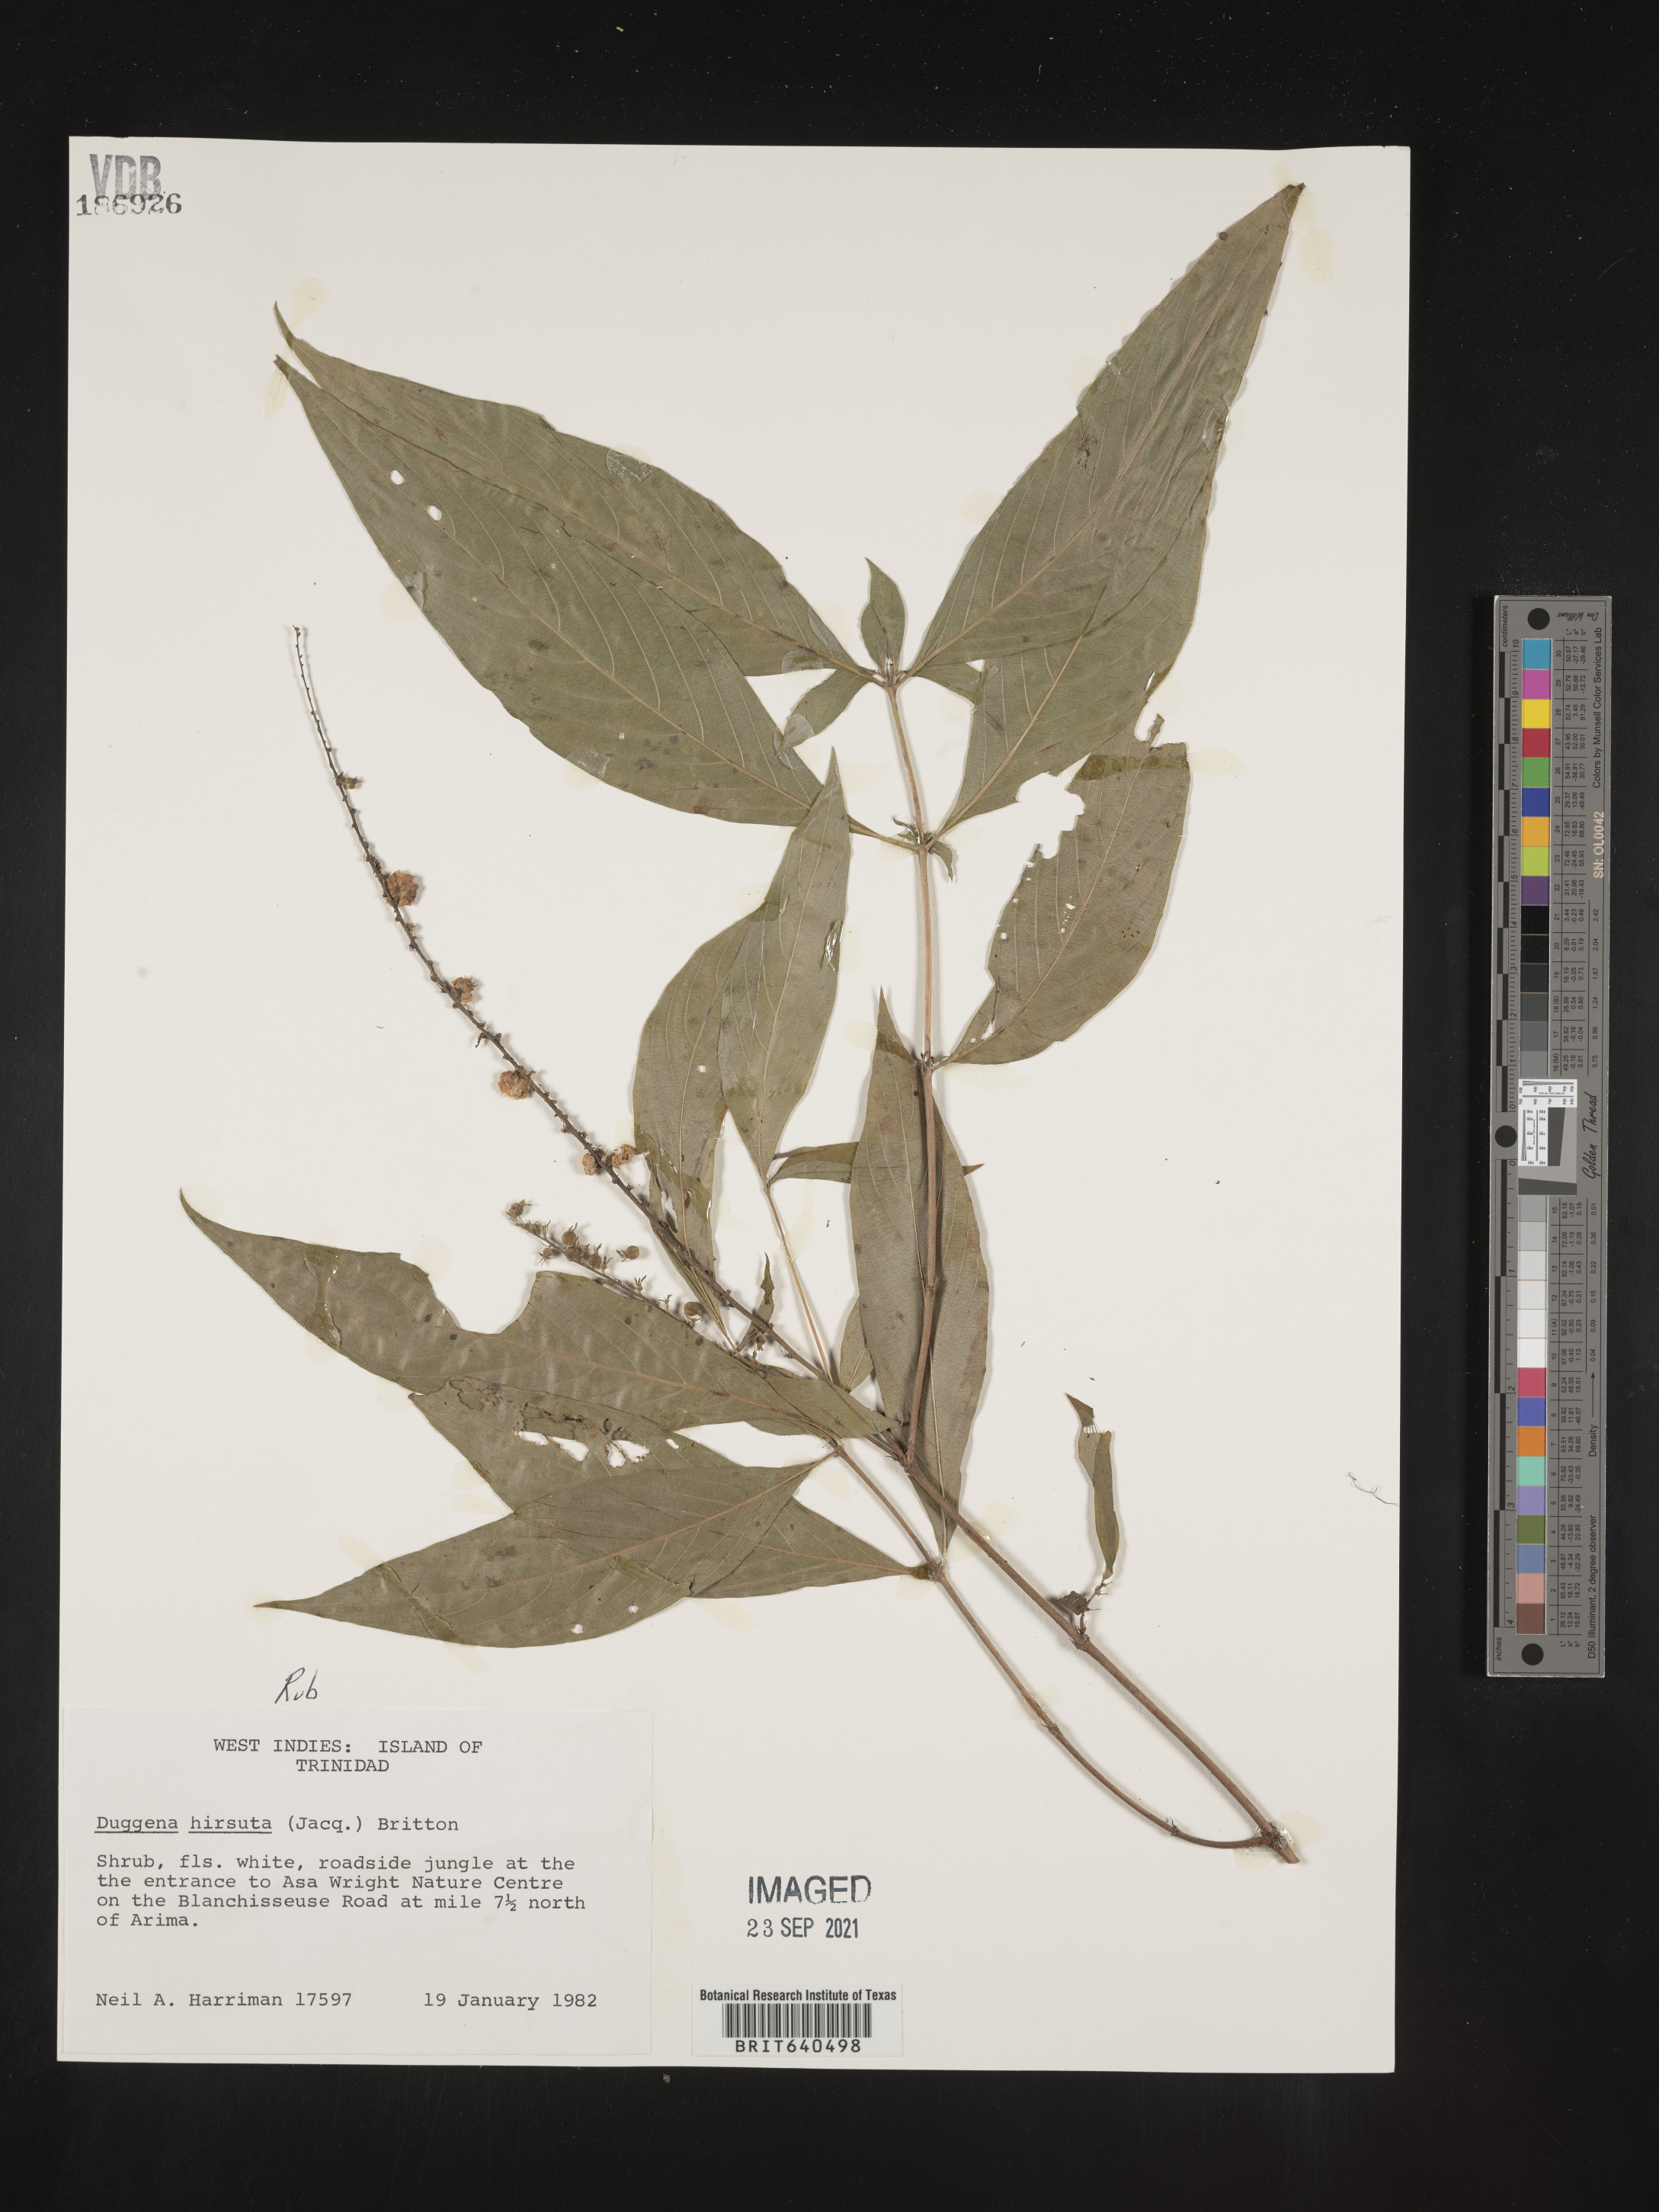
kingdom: Plantae
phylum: Tracheophyta
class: Magnoliopsida
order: Gentianales
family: Rubiaceae
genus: Gonzalagunia
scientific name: Gonzalagunia
